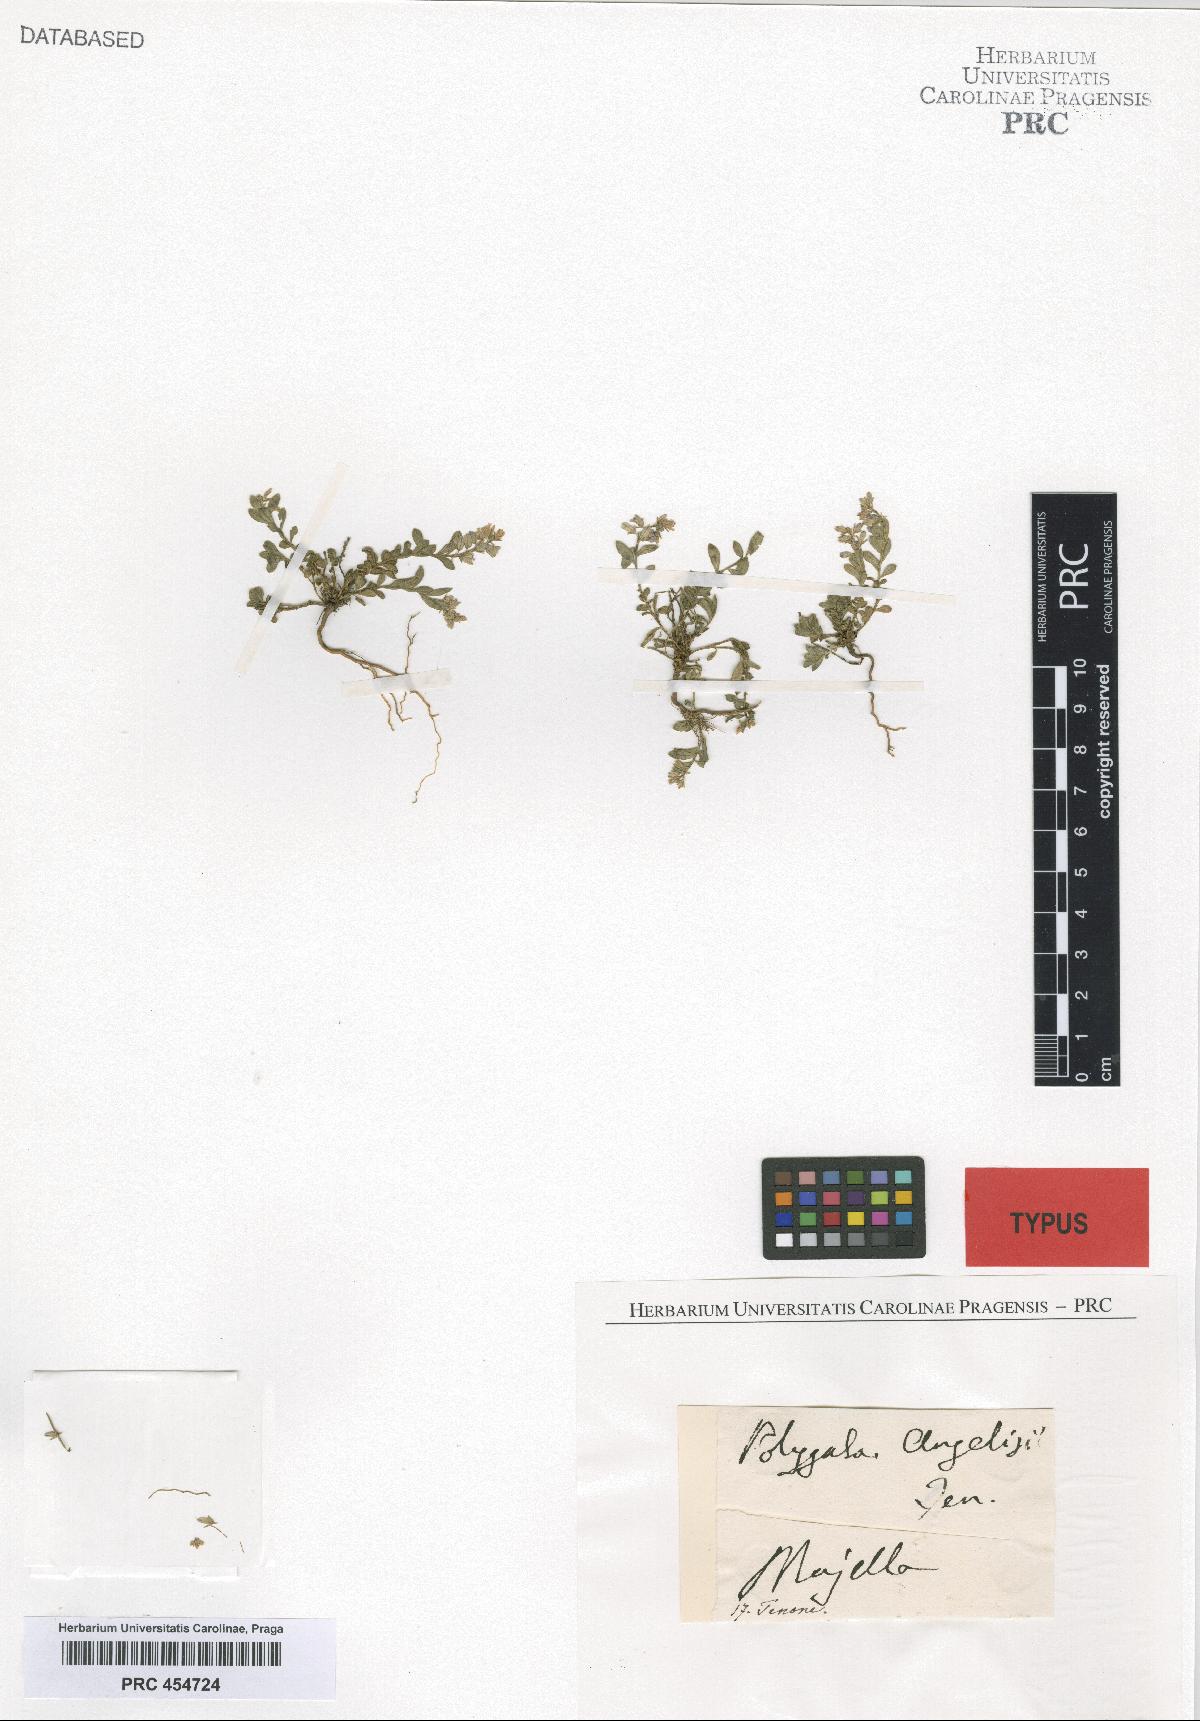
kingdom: Plantae
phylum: Tracheophyta
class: Magnoliopsida
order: Fabales
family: Polygalaceae
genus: Polygala
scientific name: Polygala angelisia
